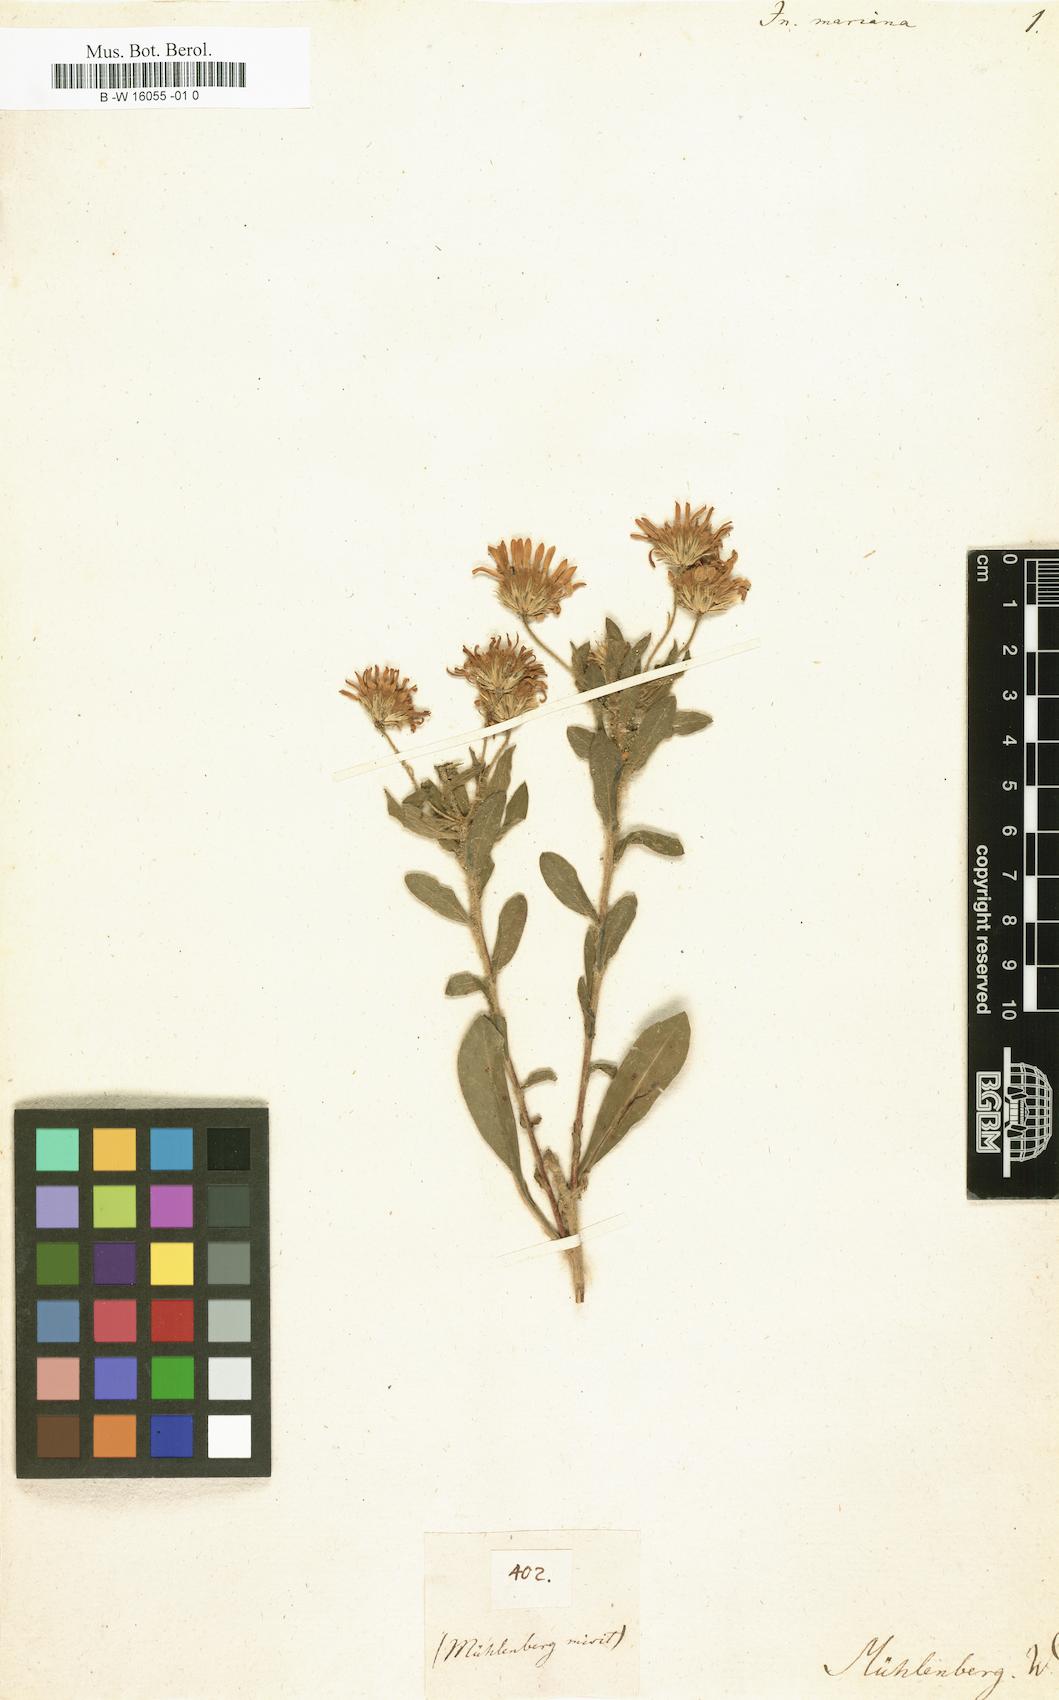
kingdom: Plantae
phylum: Tracheophyta
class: Magnoliopsida
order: Asterales
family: Asteraceae
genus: Chrysopsis
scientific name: Chrysopsis mariana
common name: Maryland golden-aster
